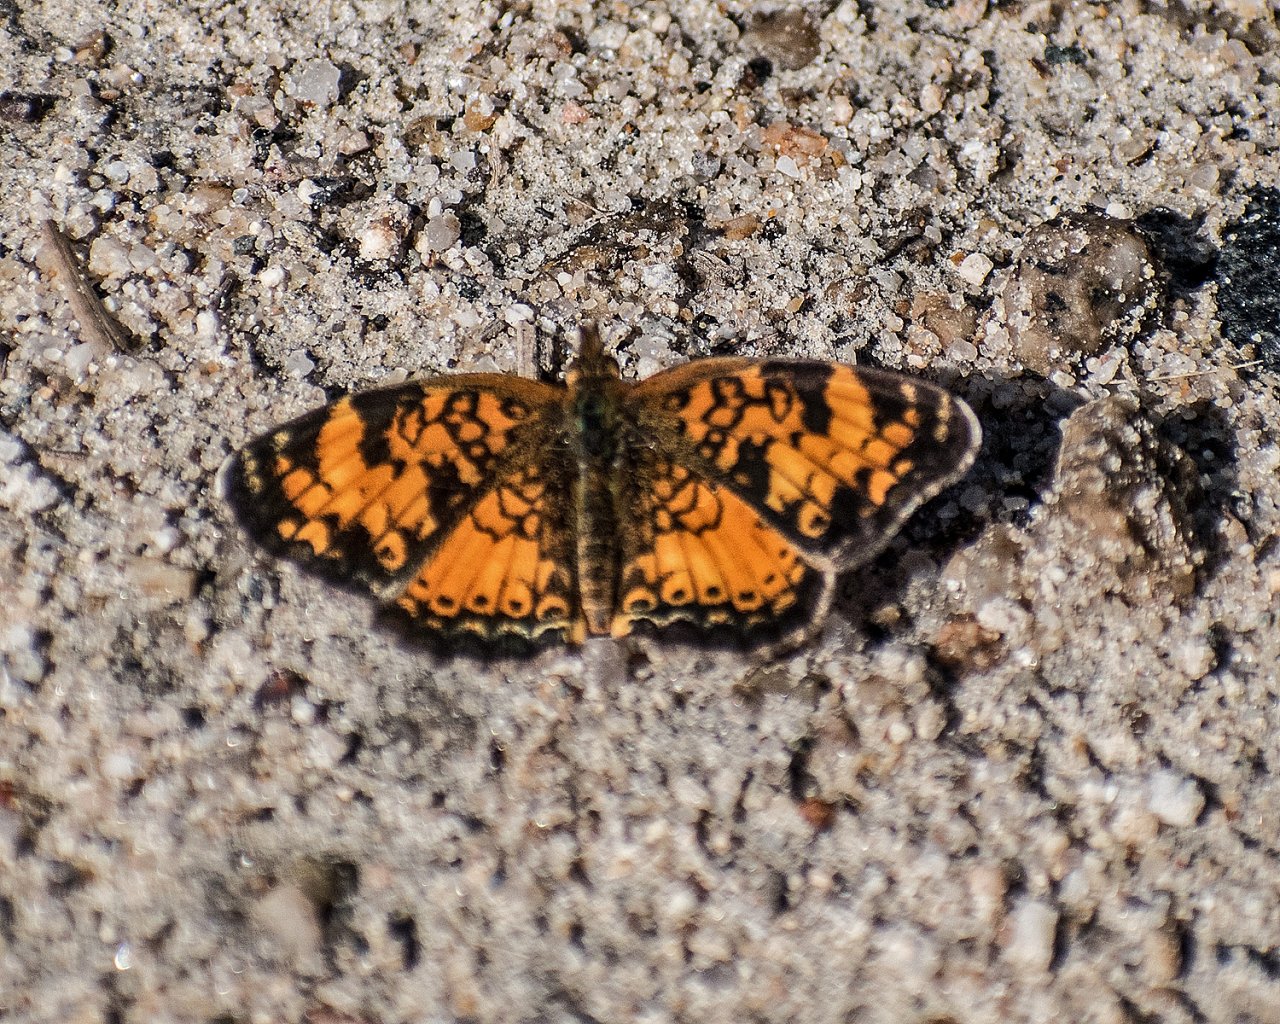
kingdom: Animalia
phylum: Arthropoda
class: Insecta
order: Lepidoptera
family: Nymphalidae
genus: Phyciodes
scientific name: Phyciodes tharos
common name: Northern Crescent
